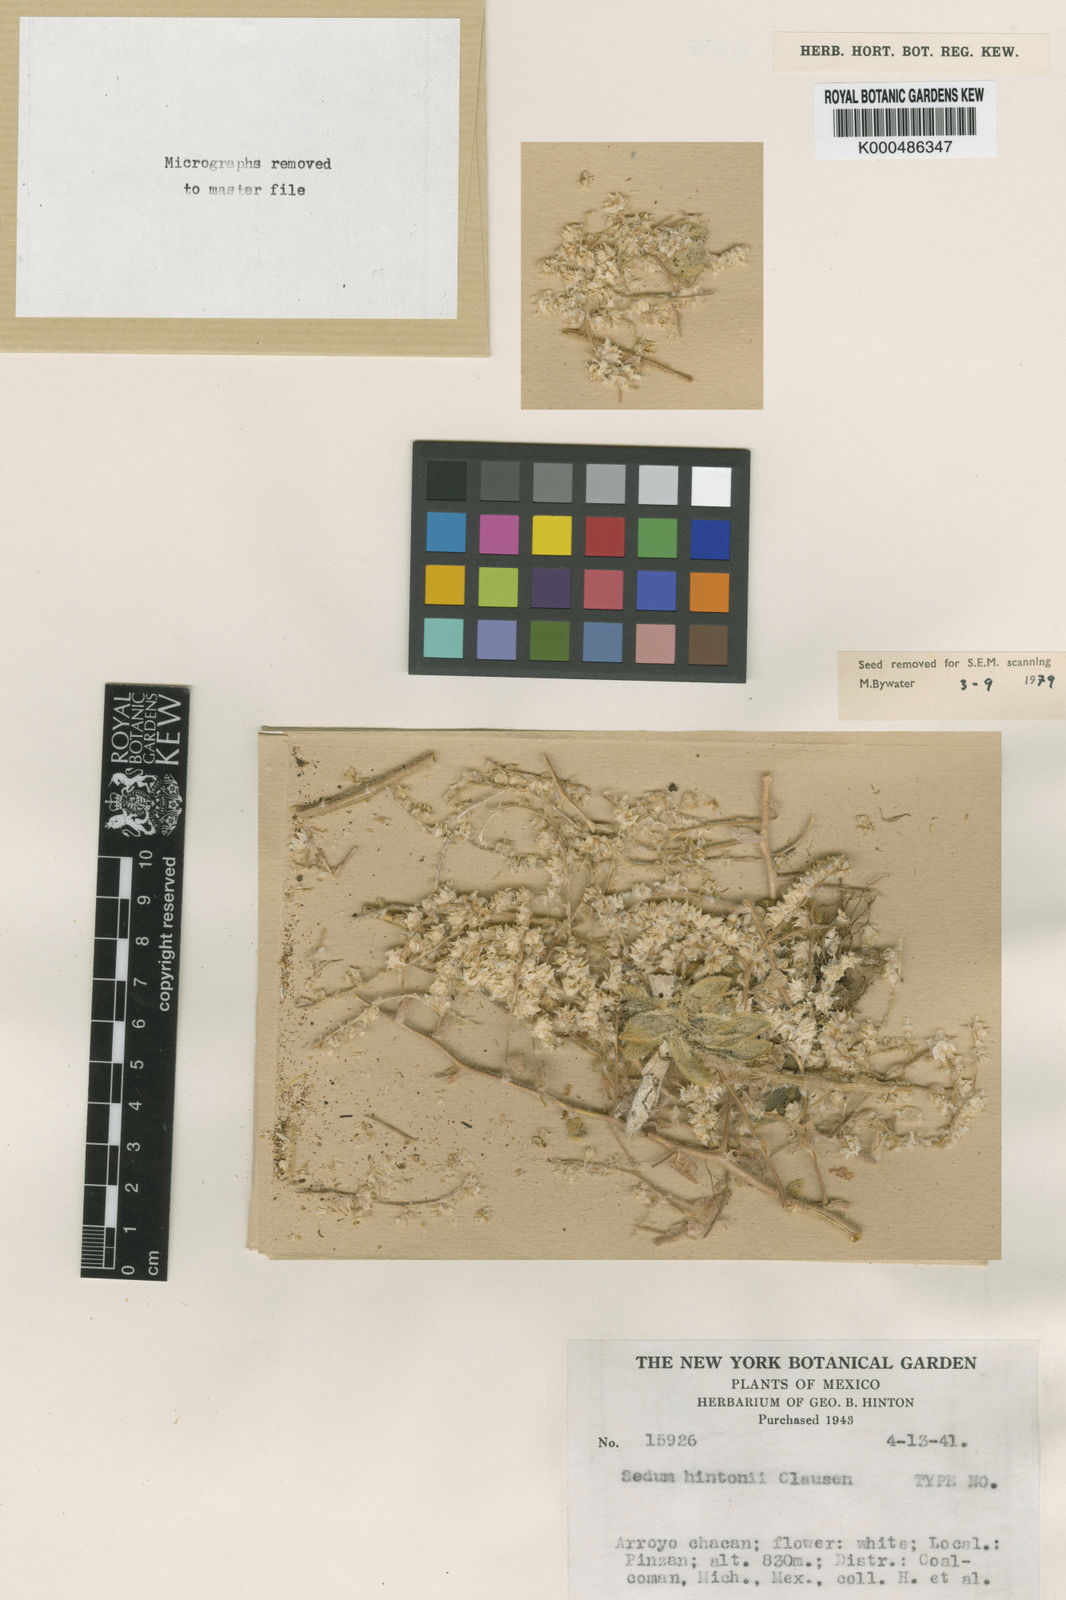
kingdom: Plantae
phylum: Tracheophyta
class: Magnoliopsida
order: Saxifragales
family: Crassulaceae
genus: Sedum
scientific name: Sedum hintonii
